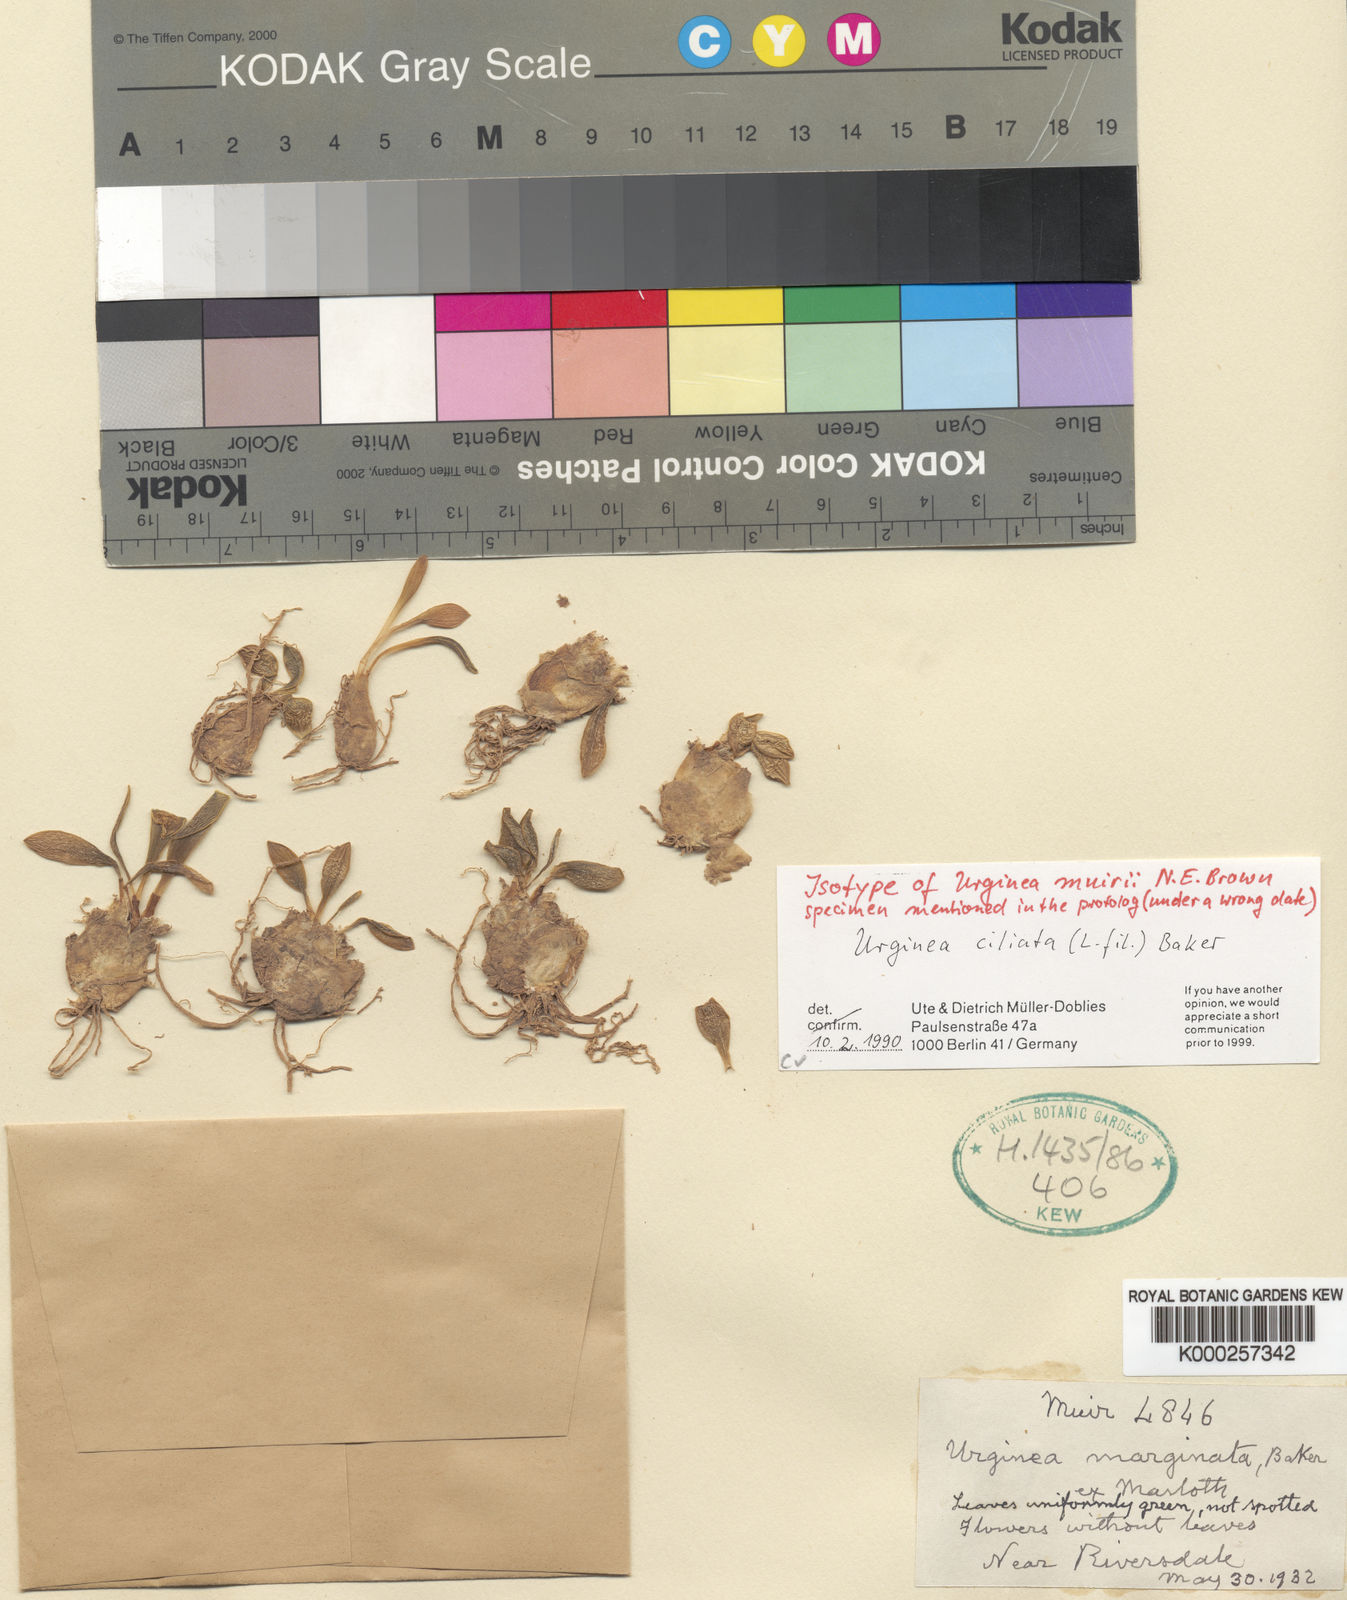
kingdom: Plantae
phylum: Tracheophyta
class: Liliopsida
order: Asparagales
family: Asparagaceae
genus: Drimia
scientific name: Drimia ciliata
